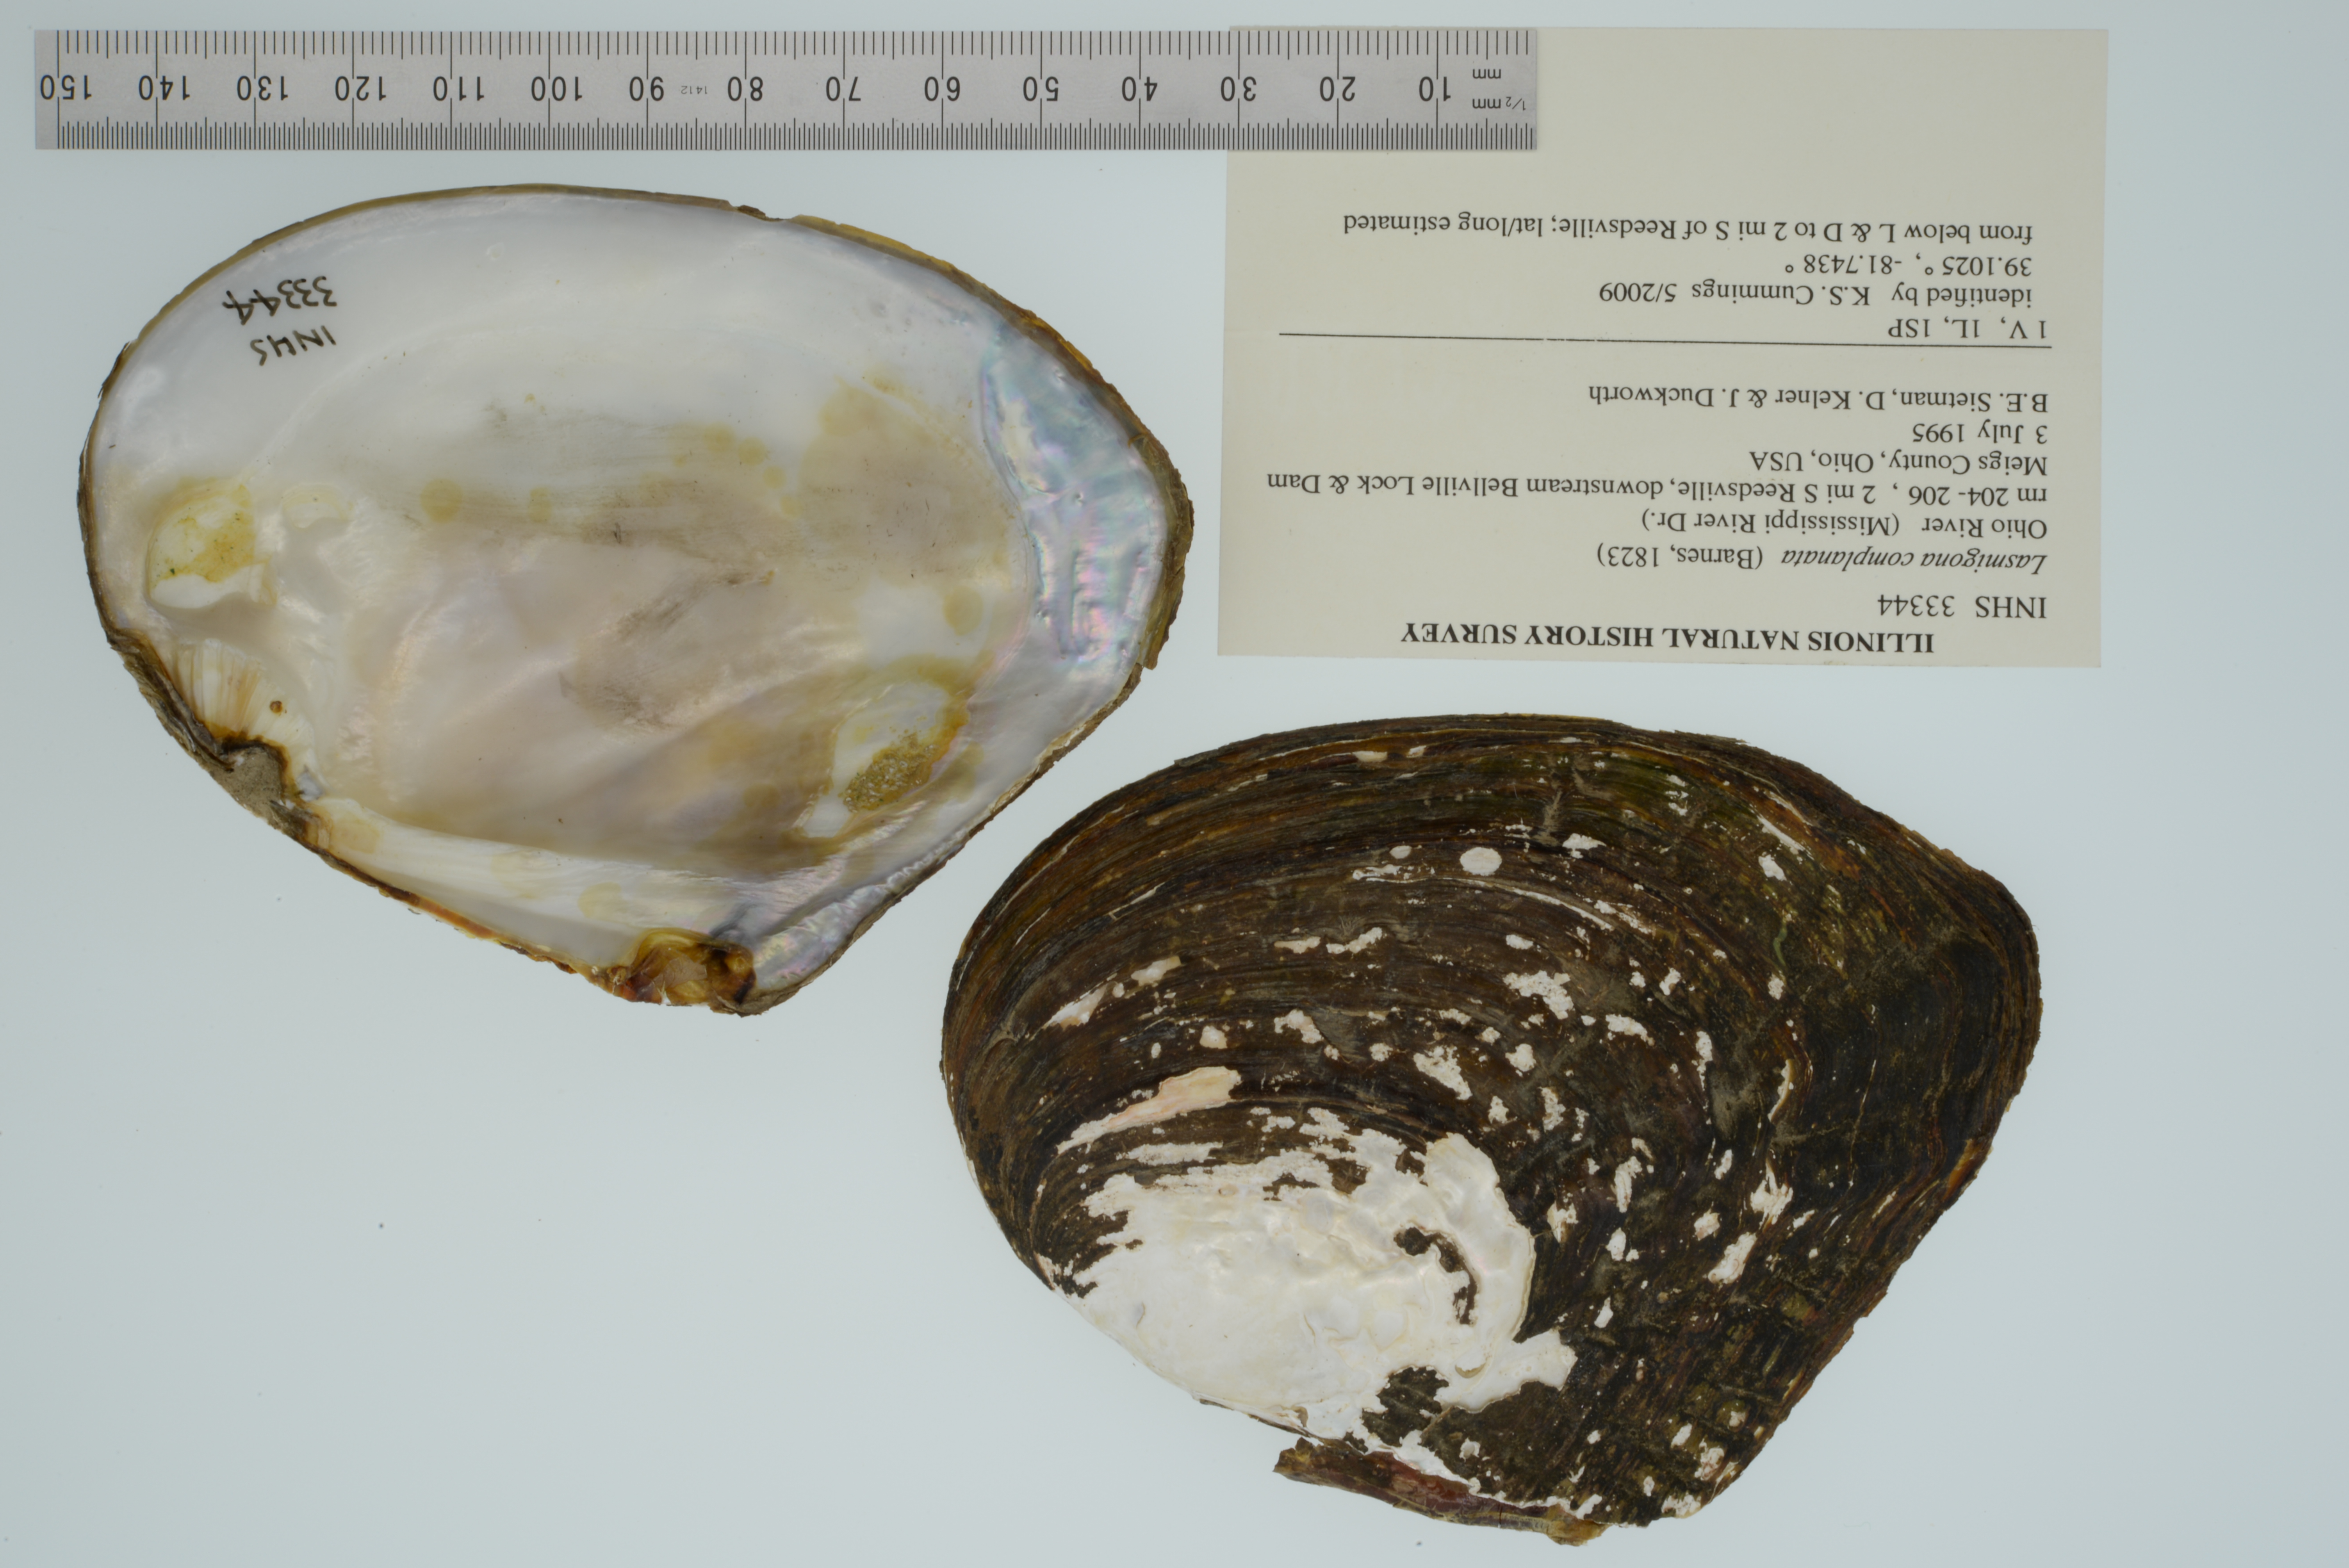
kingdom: Animalia
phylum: Mollusca
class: Bivalvia
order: Unionida
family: Unionidae
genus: Lasmigona
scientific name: Lasmigona complanata
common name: White heelsplitter
